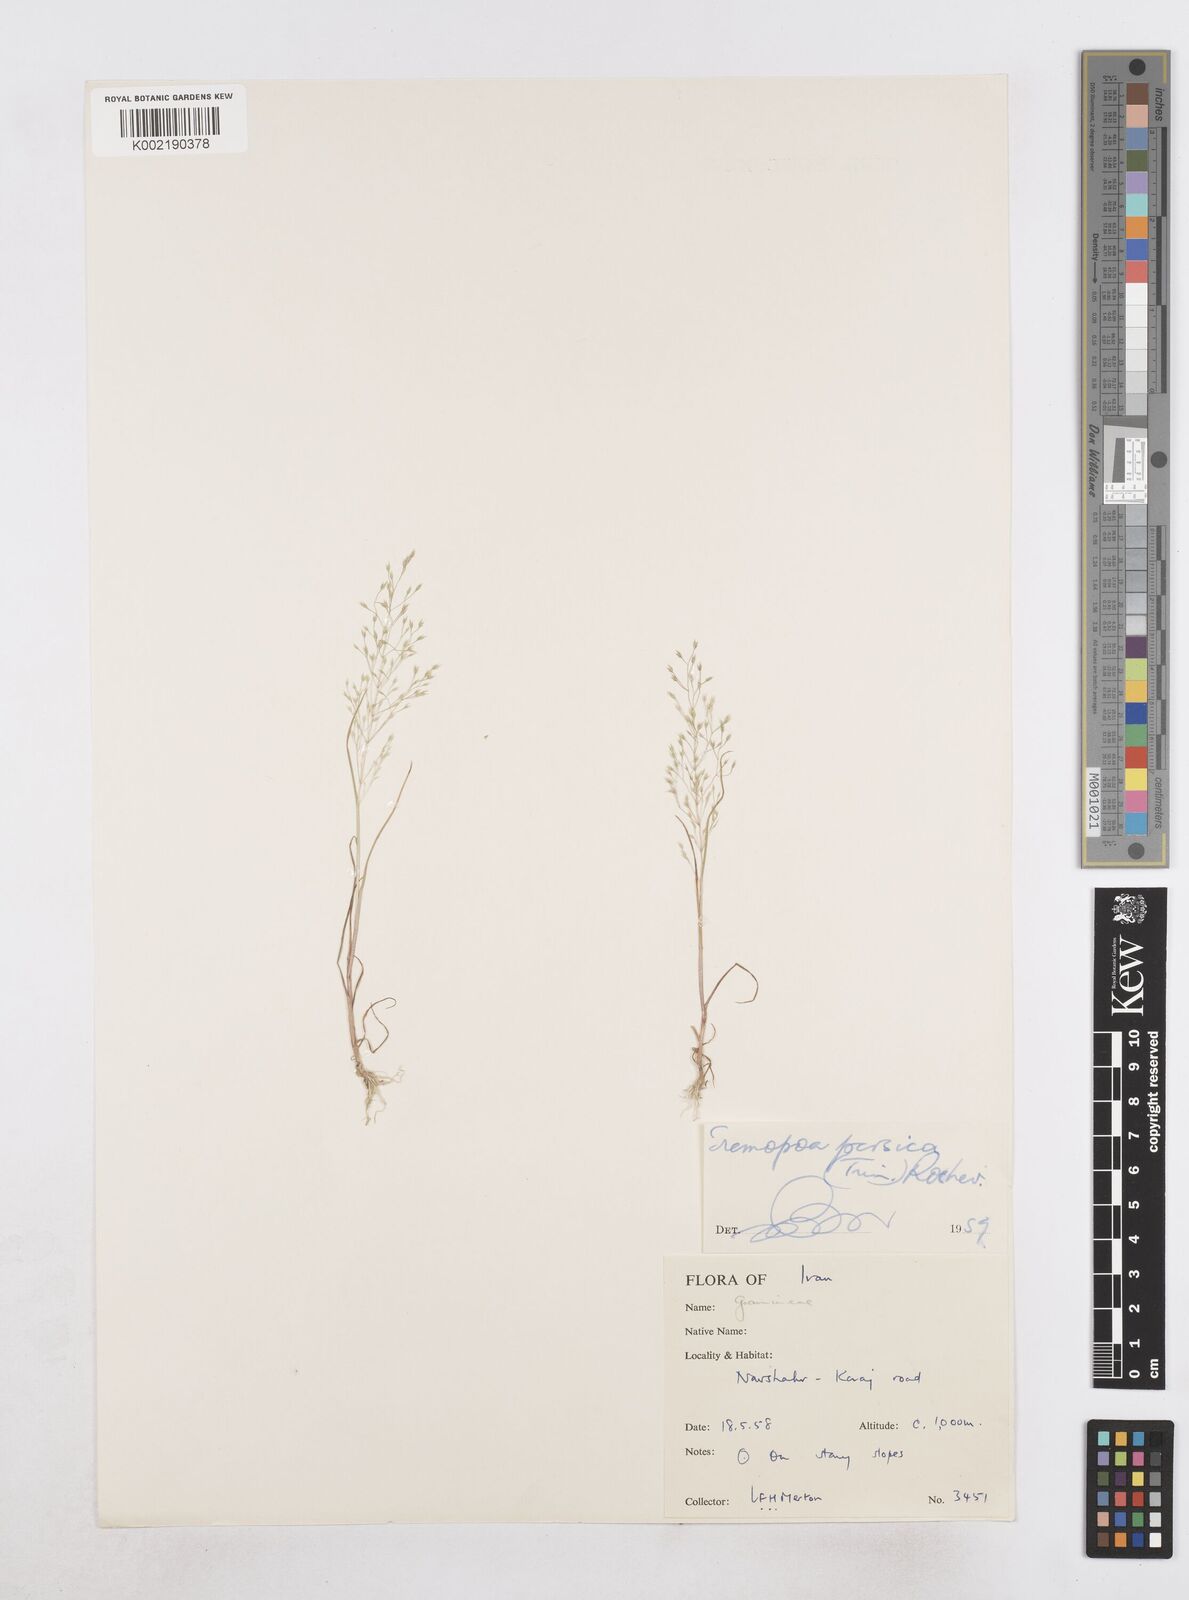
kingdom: Plantae
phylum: Tracheophyta
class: Liliopsida
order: Poales
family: Poaceae
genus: Poa
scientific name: Poa persica
